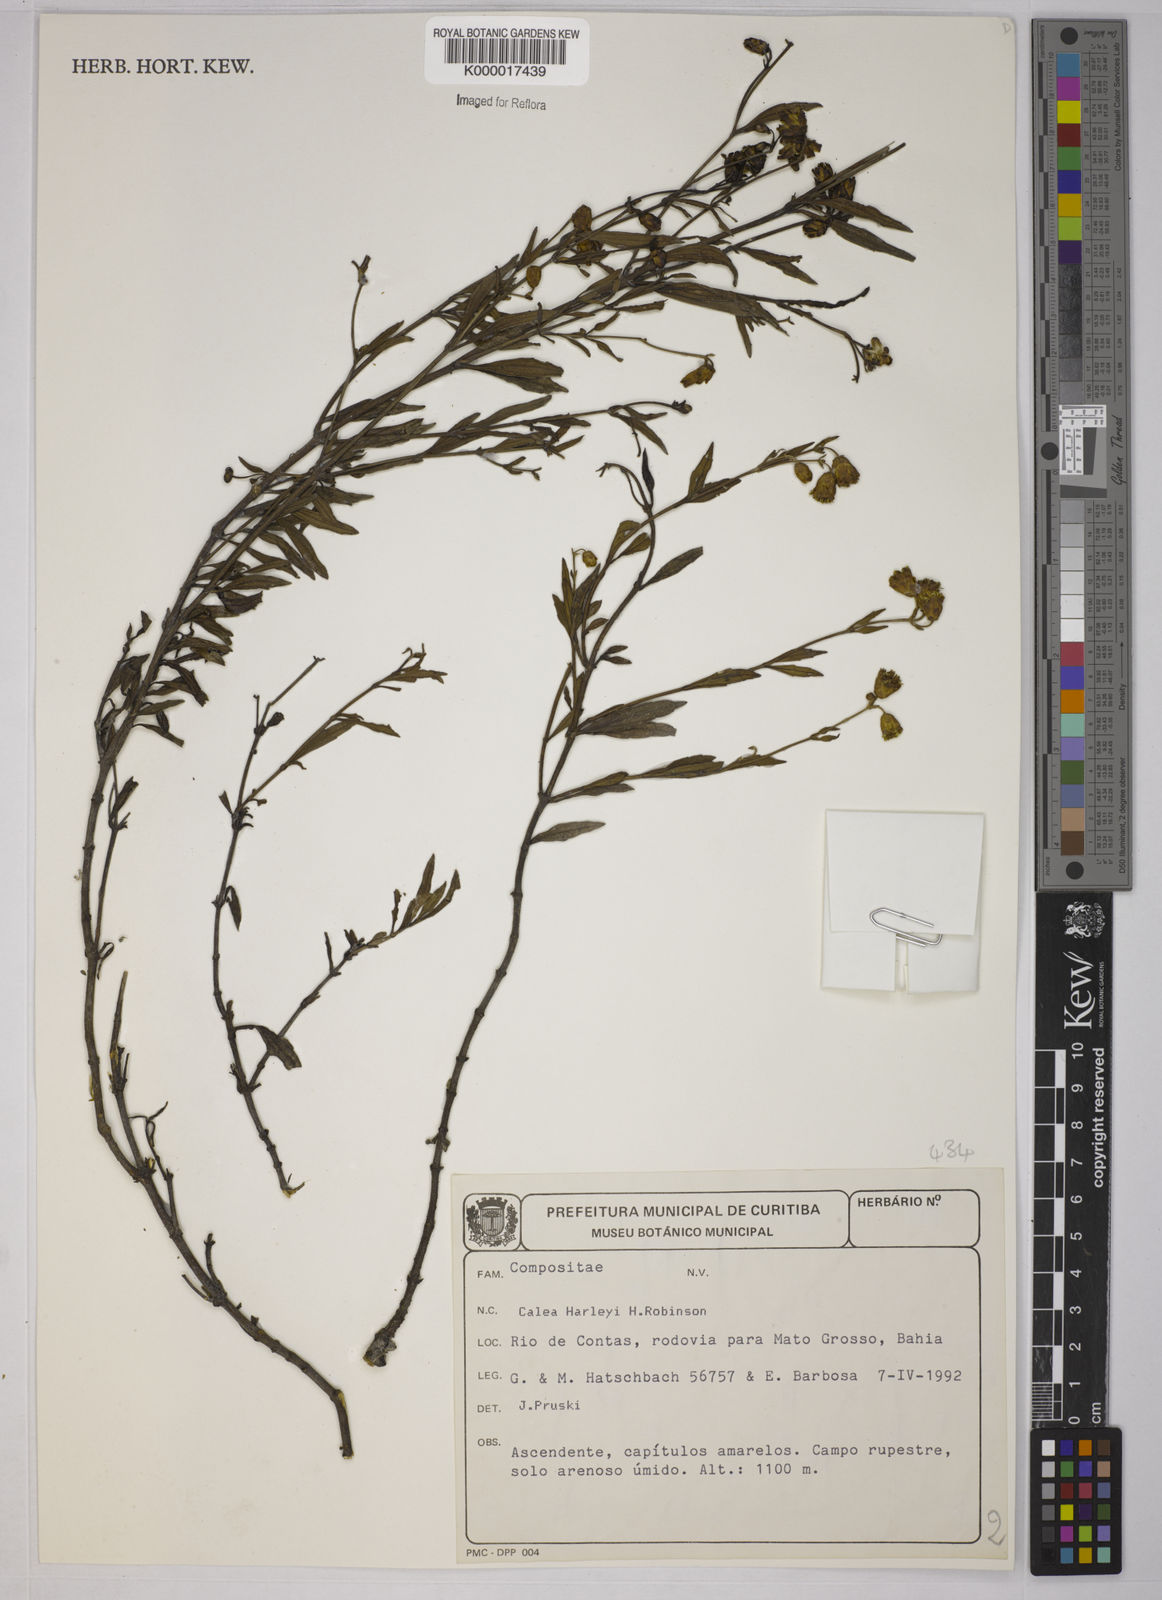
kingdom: Plantae
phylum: Tracheophyta
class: Magnoliopsida
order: Asterales
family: Asteraceae
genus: Calea
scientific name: Calea harleyi
